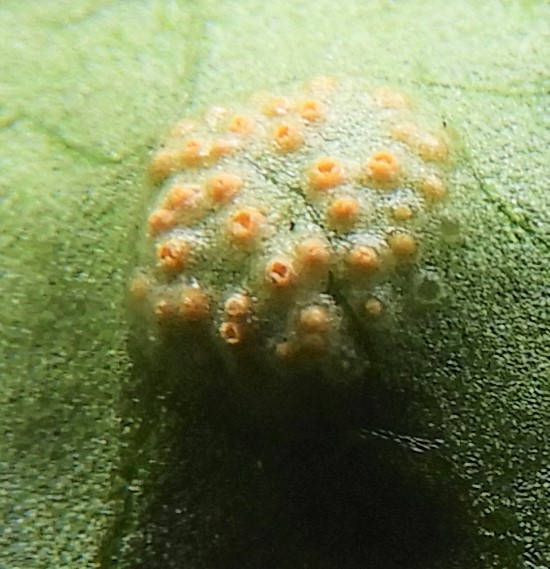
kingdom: Fungi
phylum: Basidiomycota
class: Pucciniomycetes
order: Pucciniales
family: Pucciniaceae
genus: Puccinia
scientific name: Puccinia violae
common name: viol-tvecellerust
